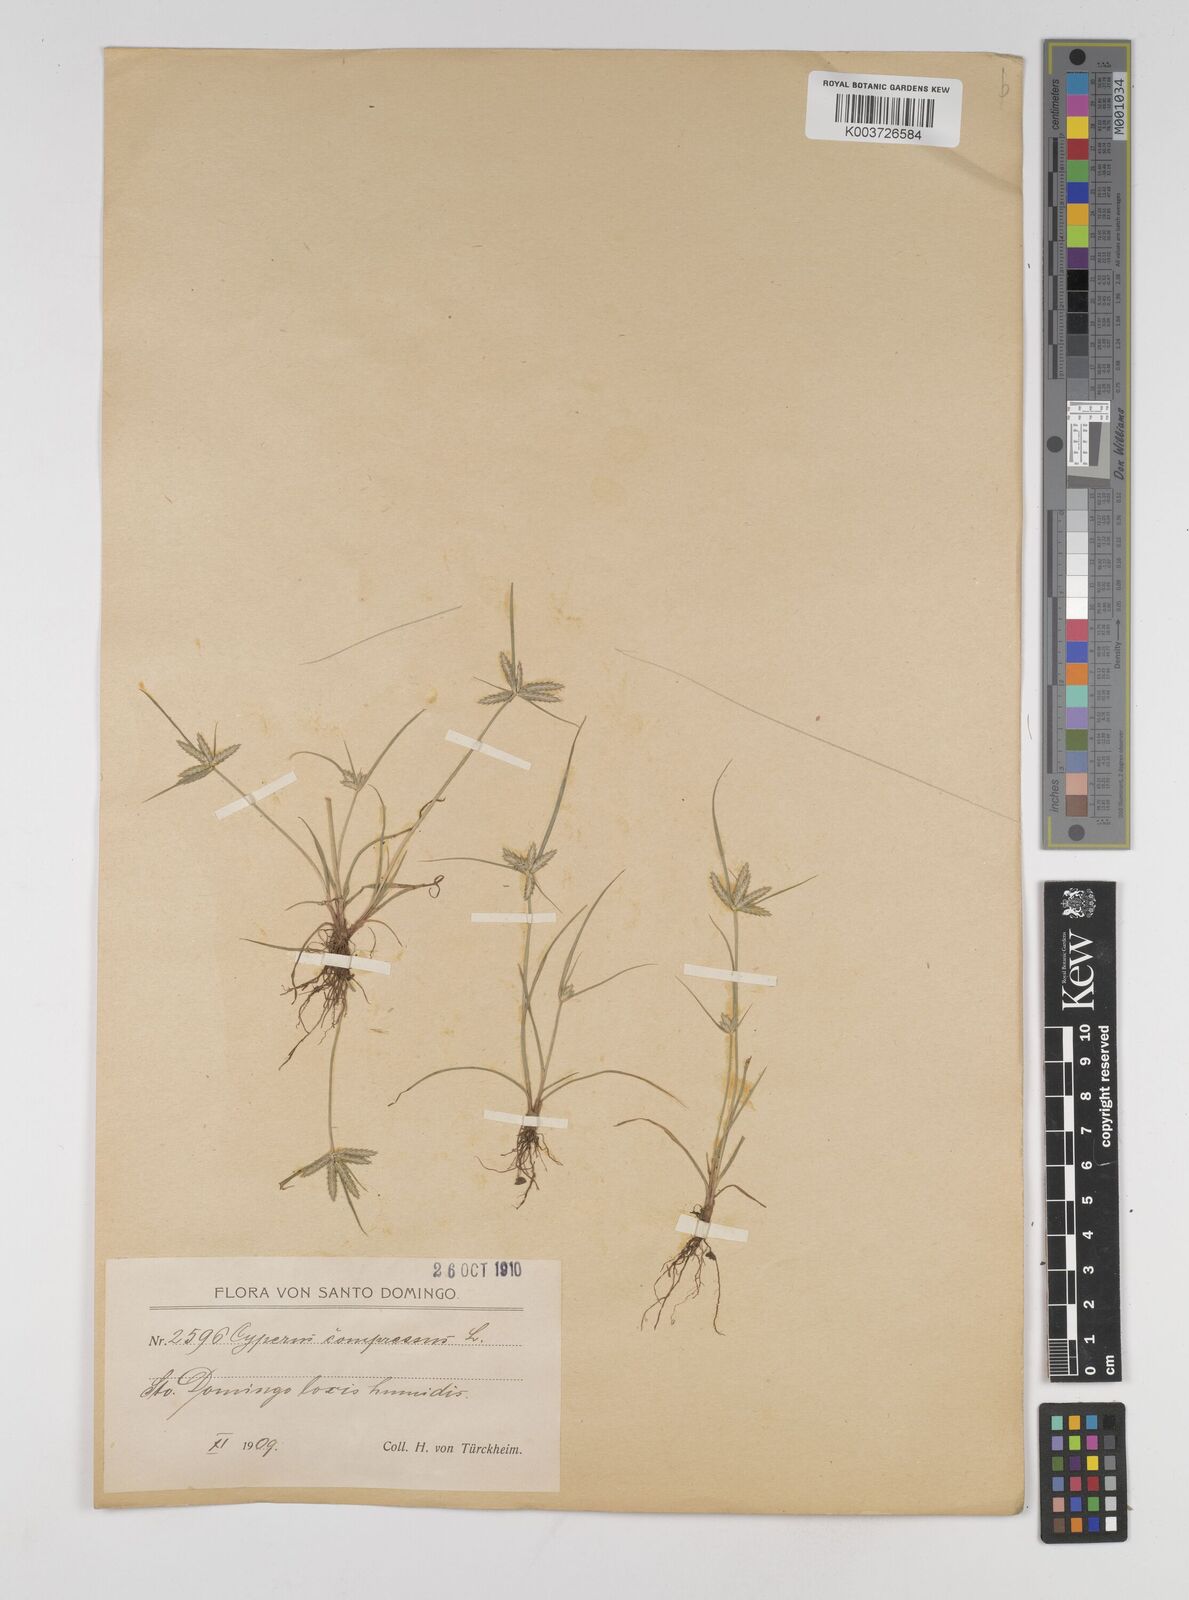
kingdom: Plantae
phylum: Tracheophyta
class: Liliopsida
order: Poales
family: Cyperaceae
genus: Cyperus
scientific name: Cyperus compressus
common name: Poorland flatsedge
